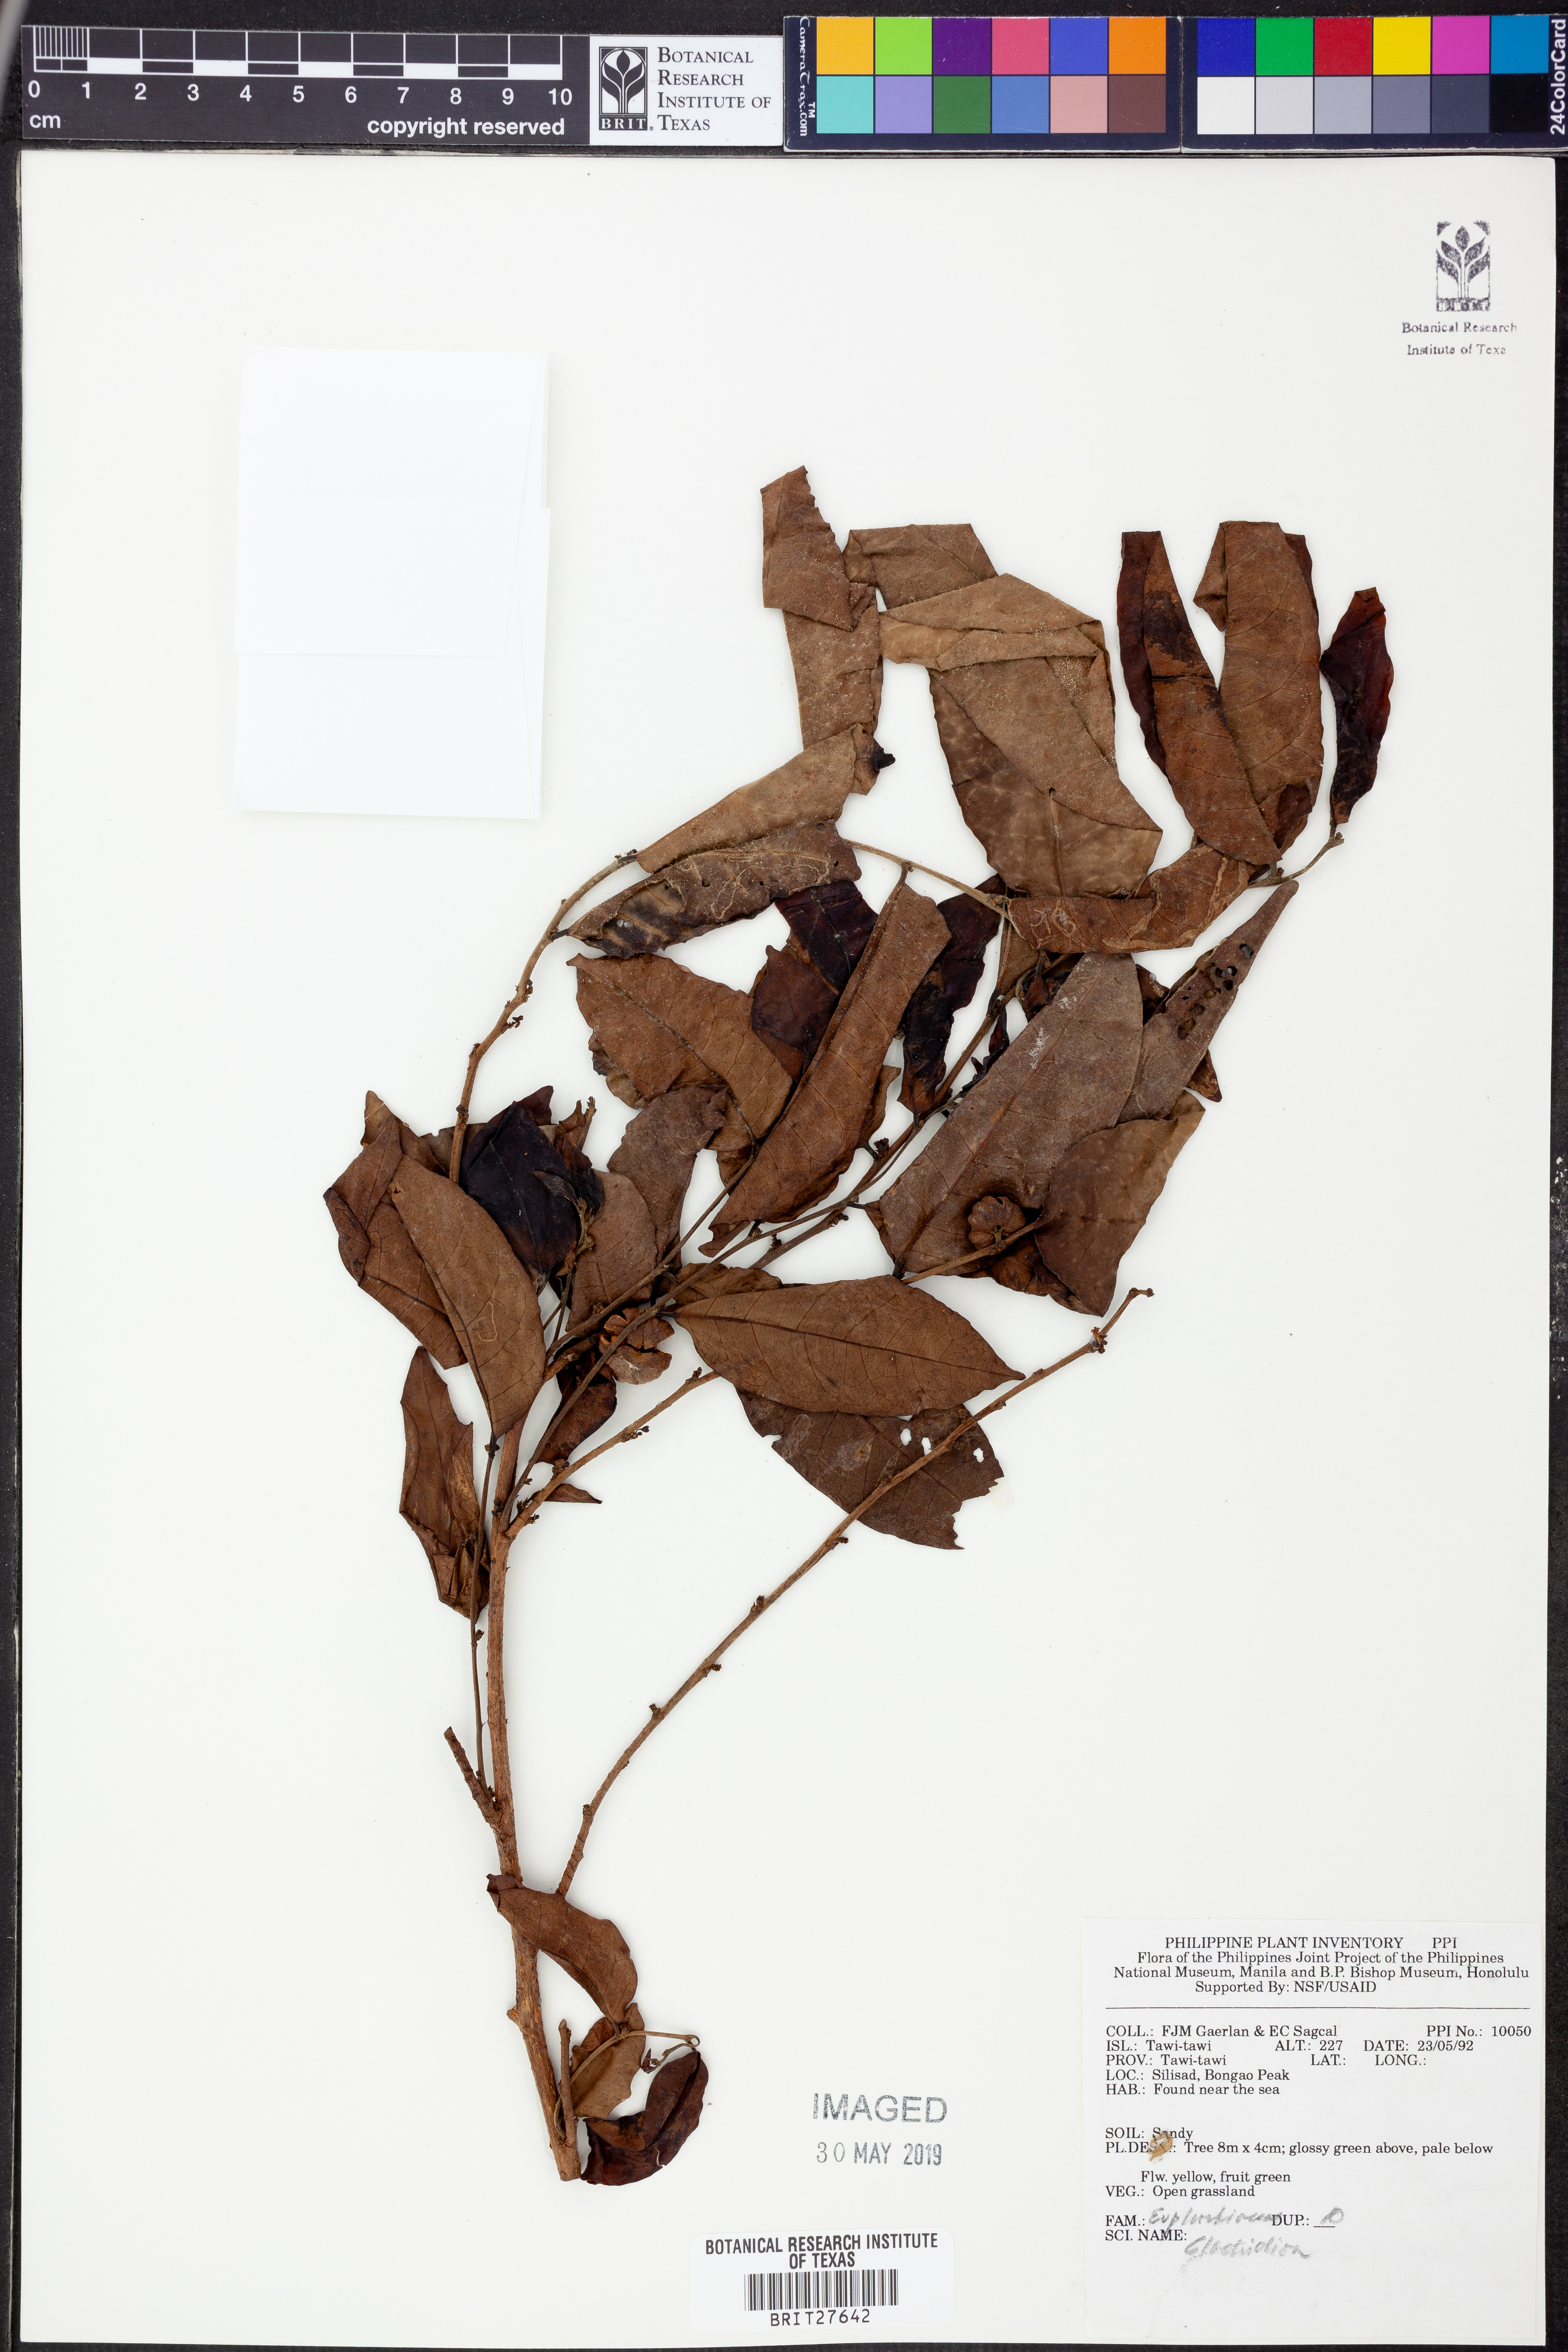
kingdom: Plantae
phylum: Tracheophyta
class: Magnoliopsida
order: Malpighiales
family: Phyllanthaceae
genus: Glochidion
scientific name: Glochidion
